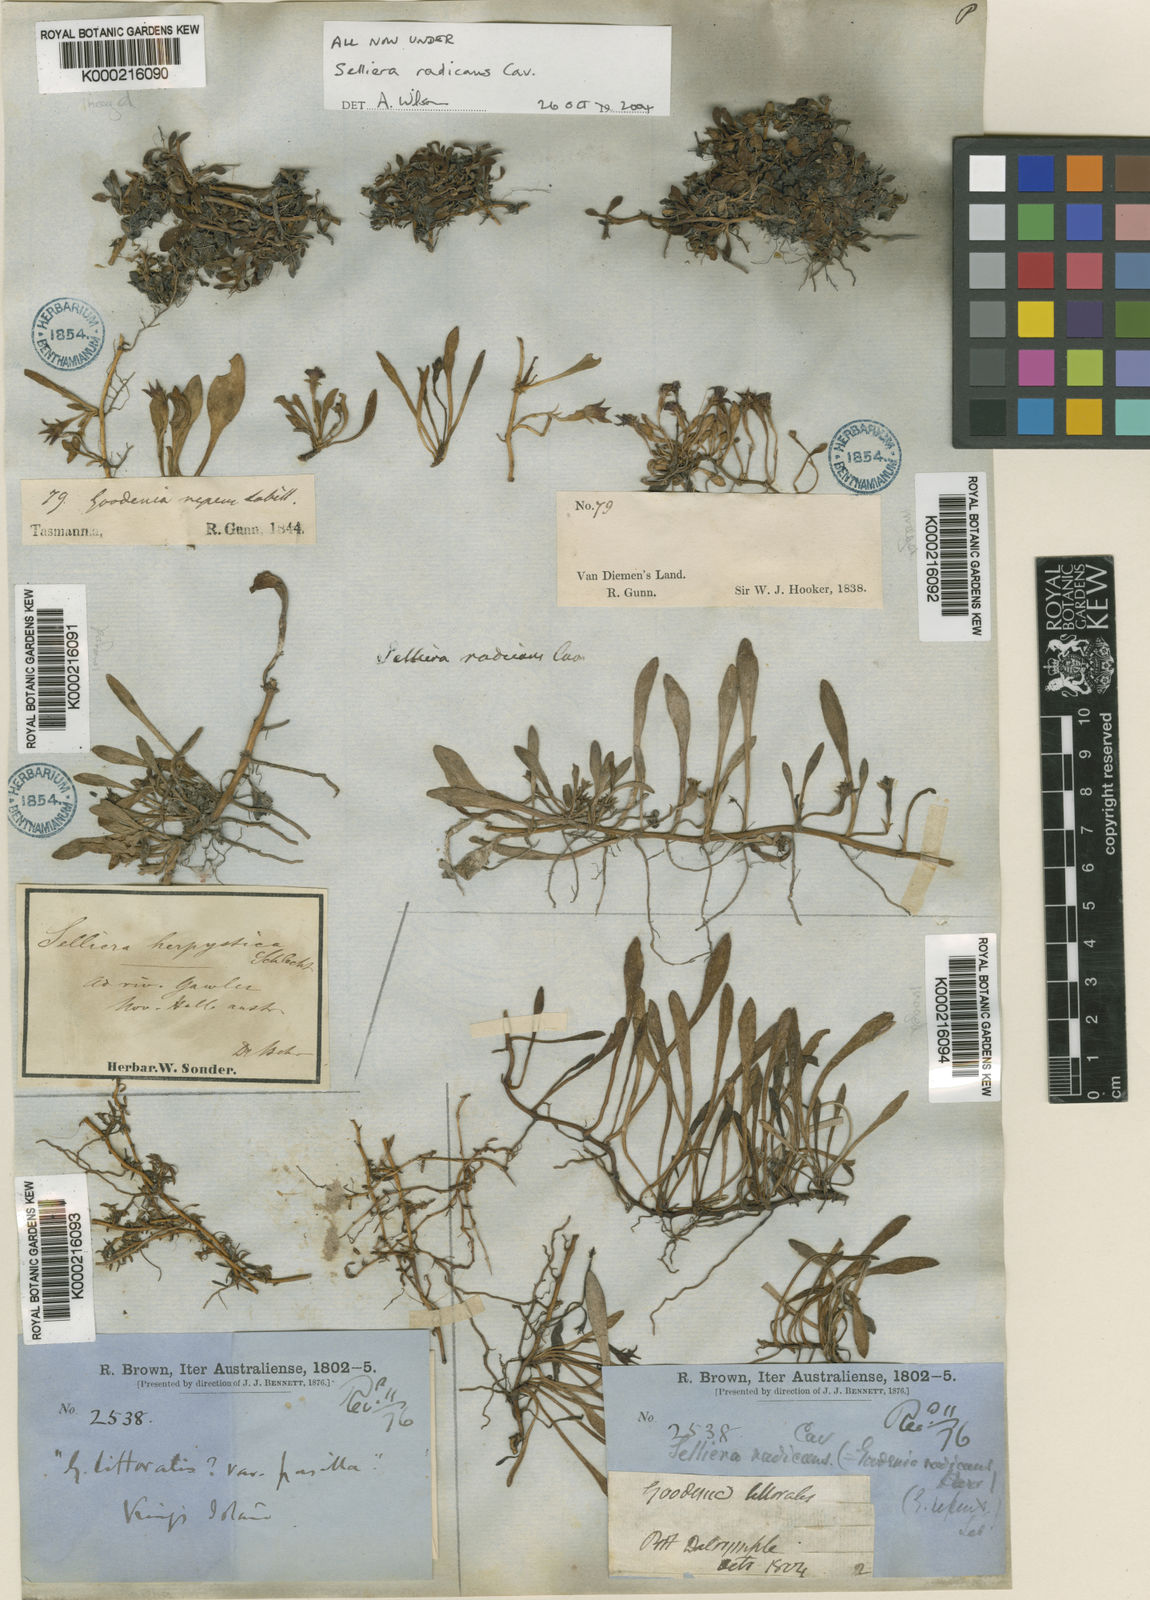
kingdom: Plantae
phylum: Tracheophyta
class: Magnoliopsida
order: Asterales
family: Goodeniaceae
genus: Goodenia
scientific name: Goodenia radicans
